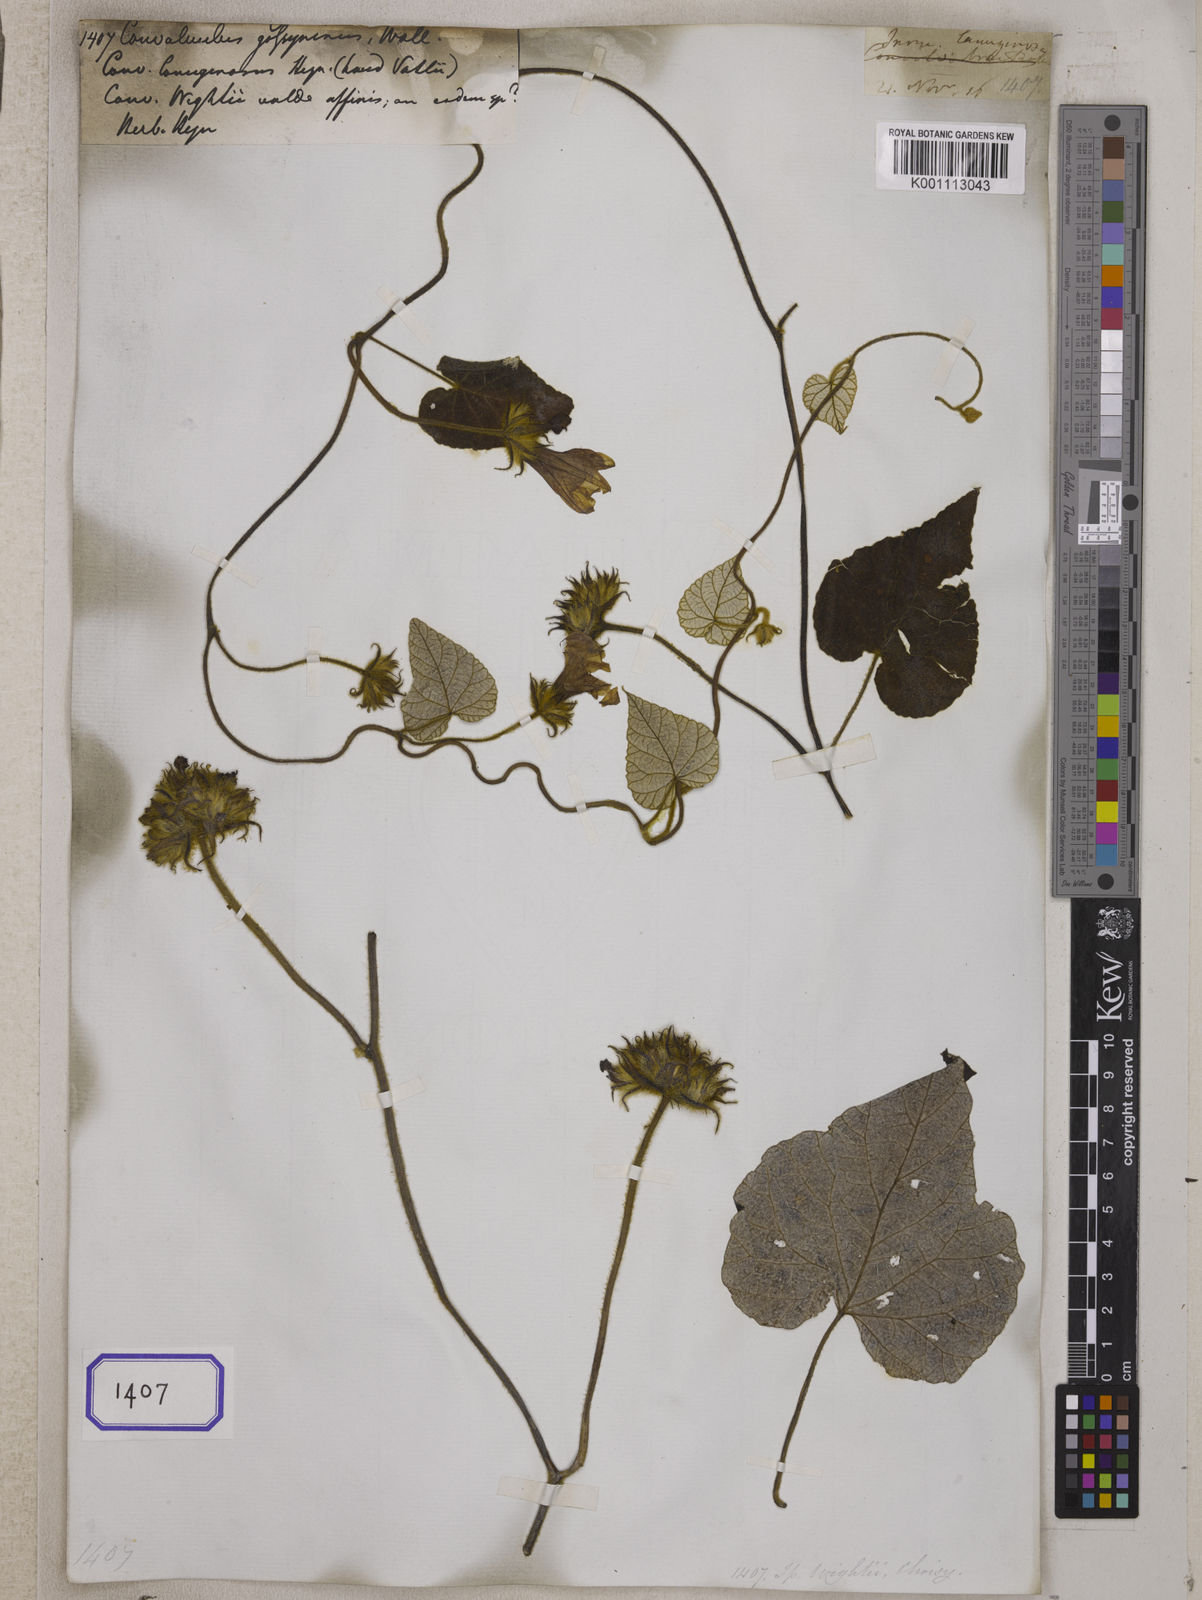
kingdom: Plantae
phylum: Tracheophyta
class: Magnoliopsida
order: Solanales
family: Convolvulaceae
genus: Convolvulus
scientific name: Convolvulus
